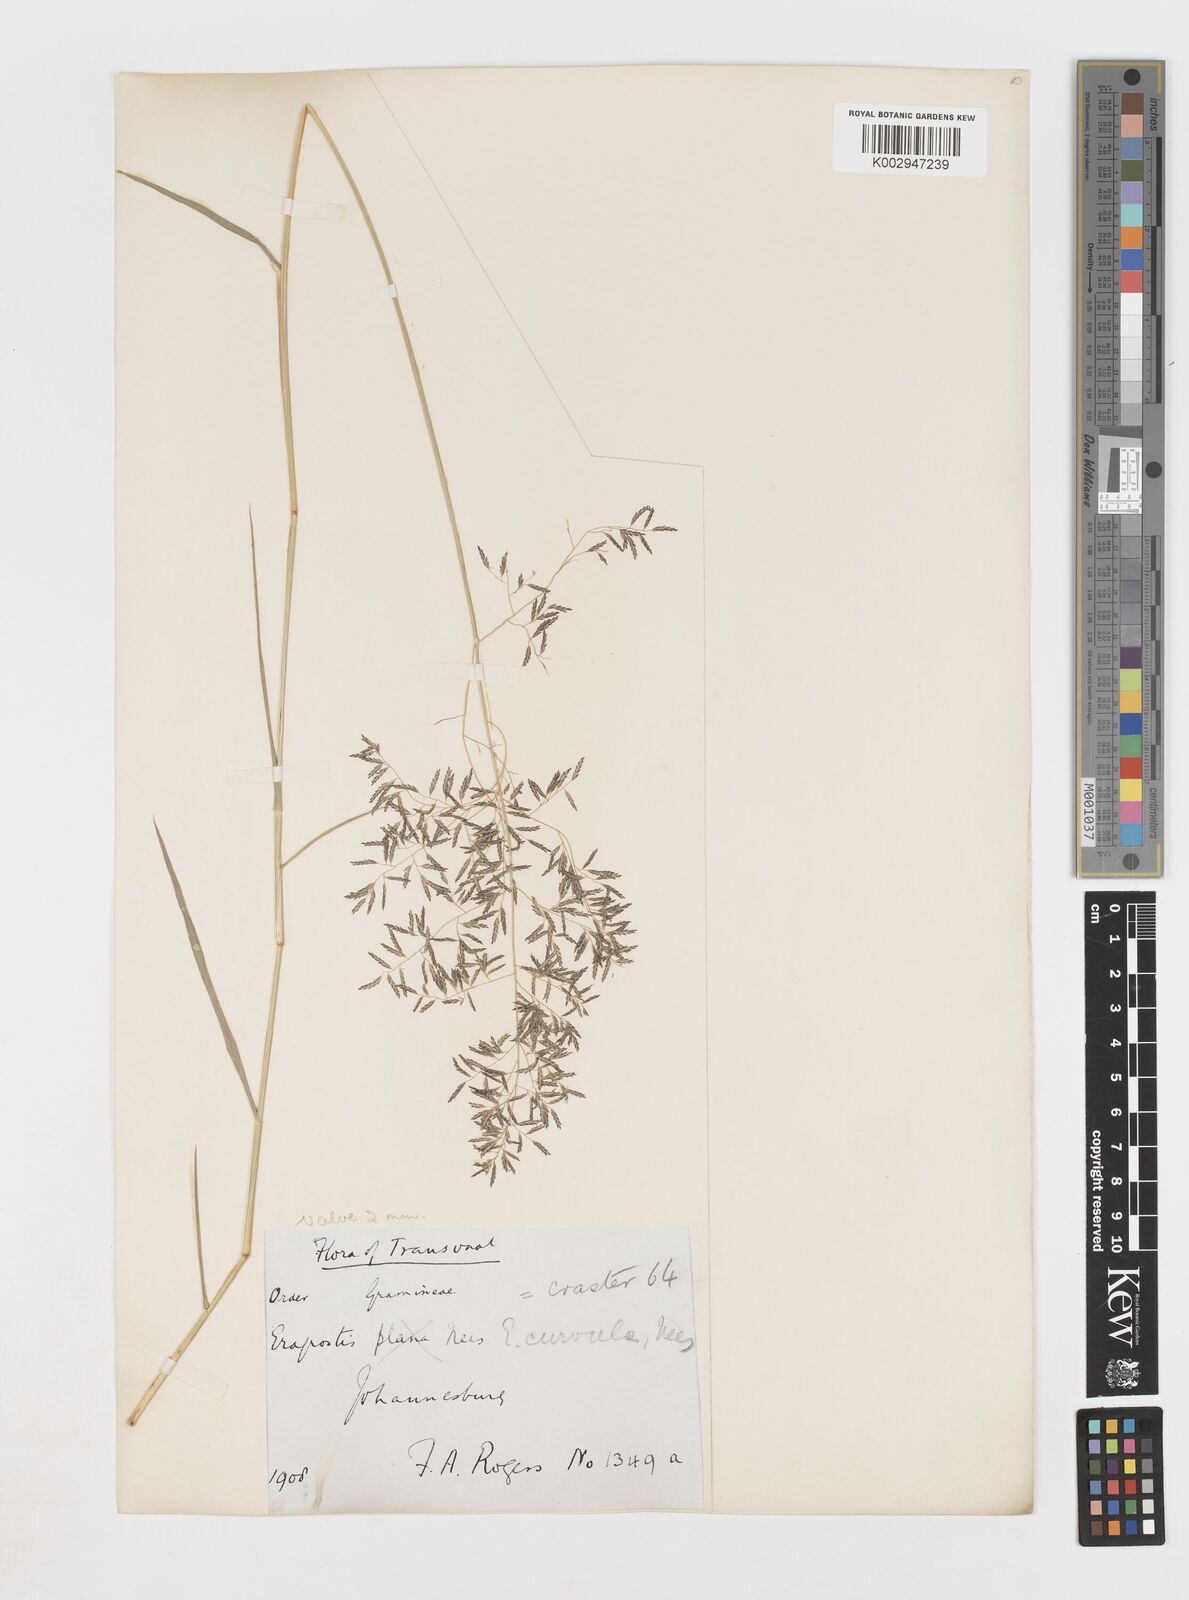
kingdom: Plantae
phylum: Tracheophyta
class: Liliopsida
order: Poales
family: Poaceae
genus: Eragrostis
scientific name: Eragrostis
